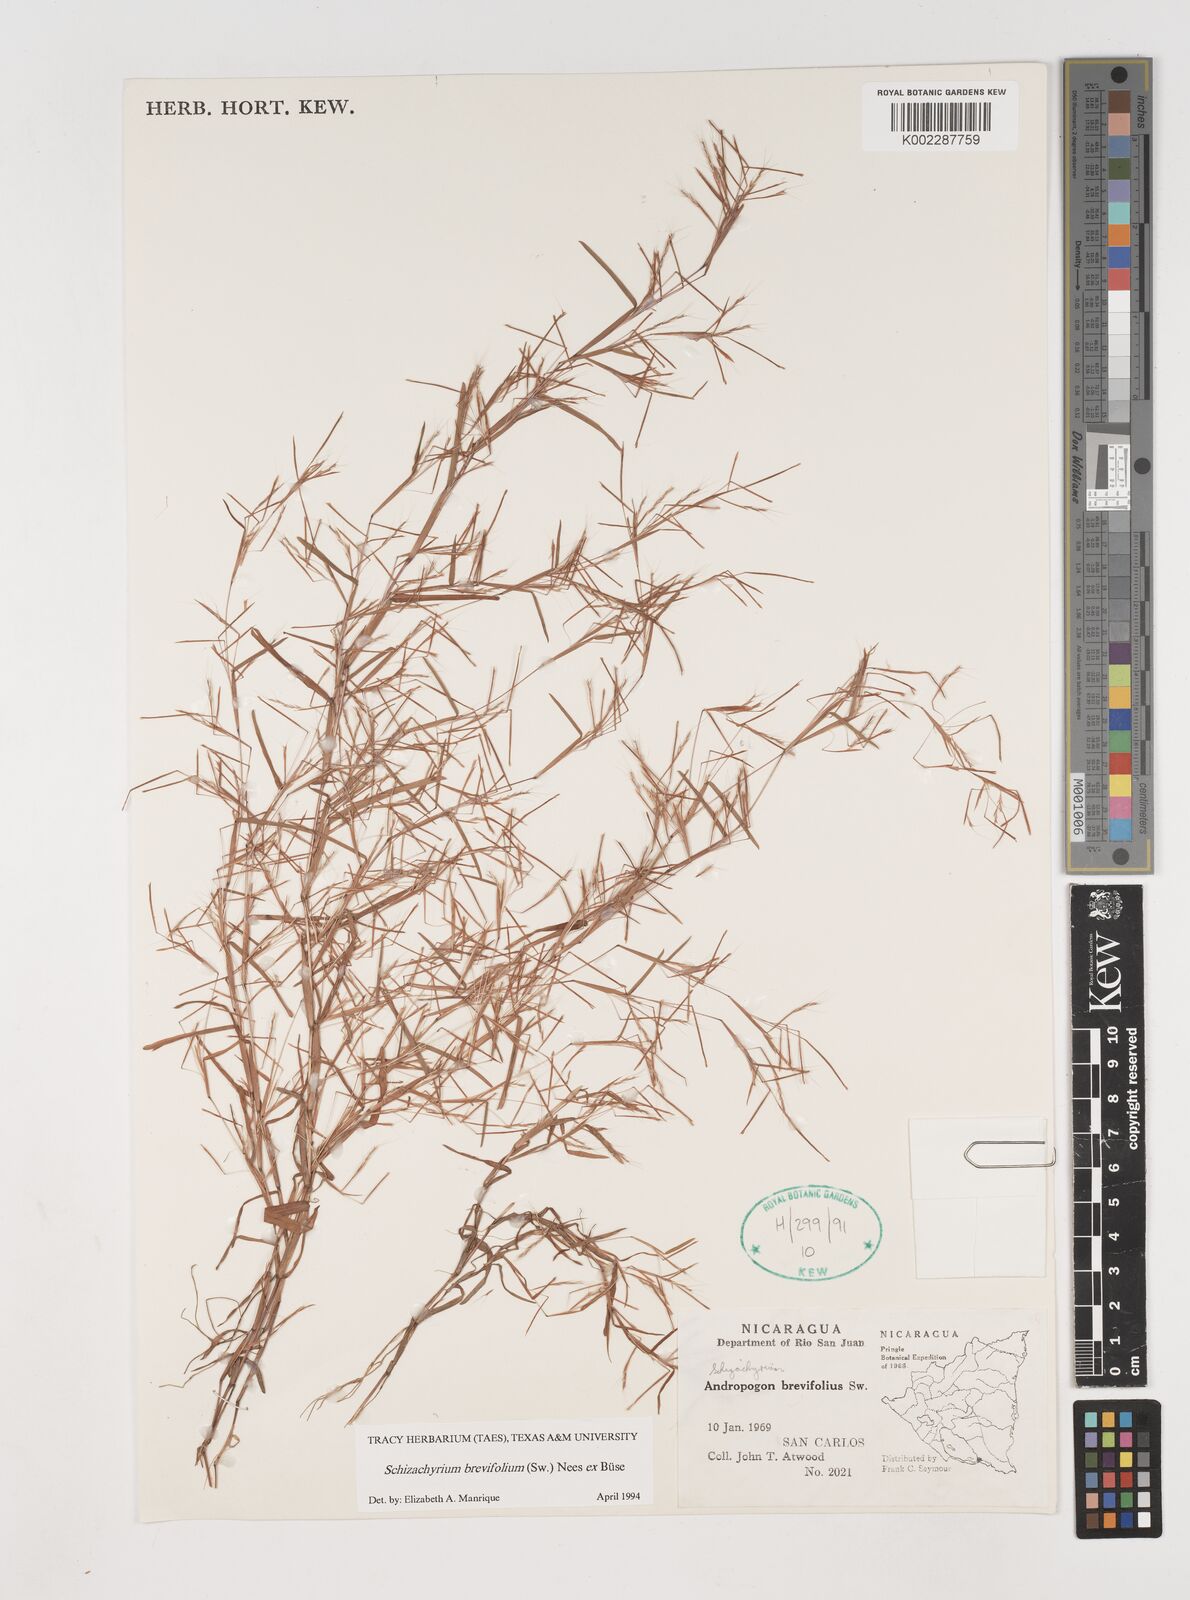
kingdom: Plantae
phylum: Tracheophyta
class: Liliopsida
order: Poales
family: Poaceae
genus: Schizachyrium
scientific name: Schizachyrium brevifolium
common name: Serillo dulce
